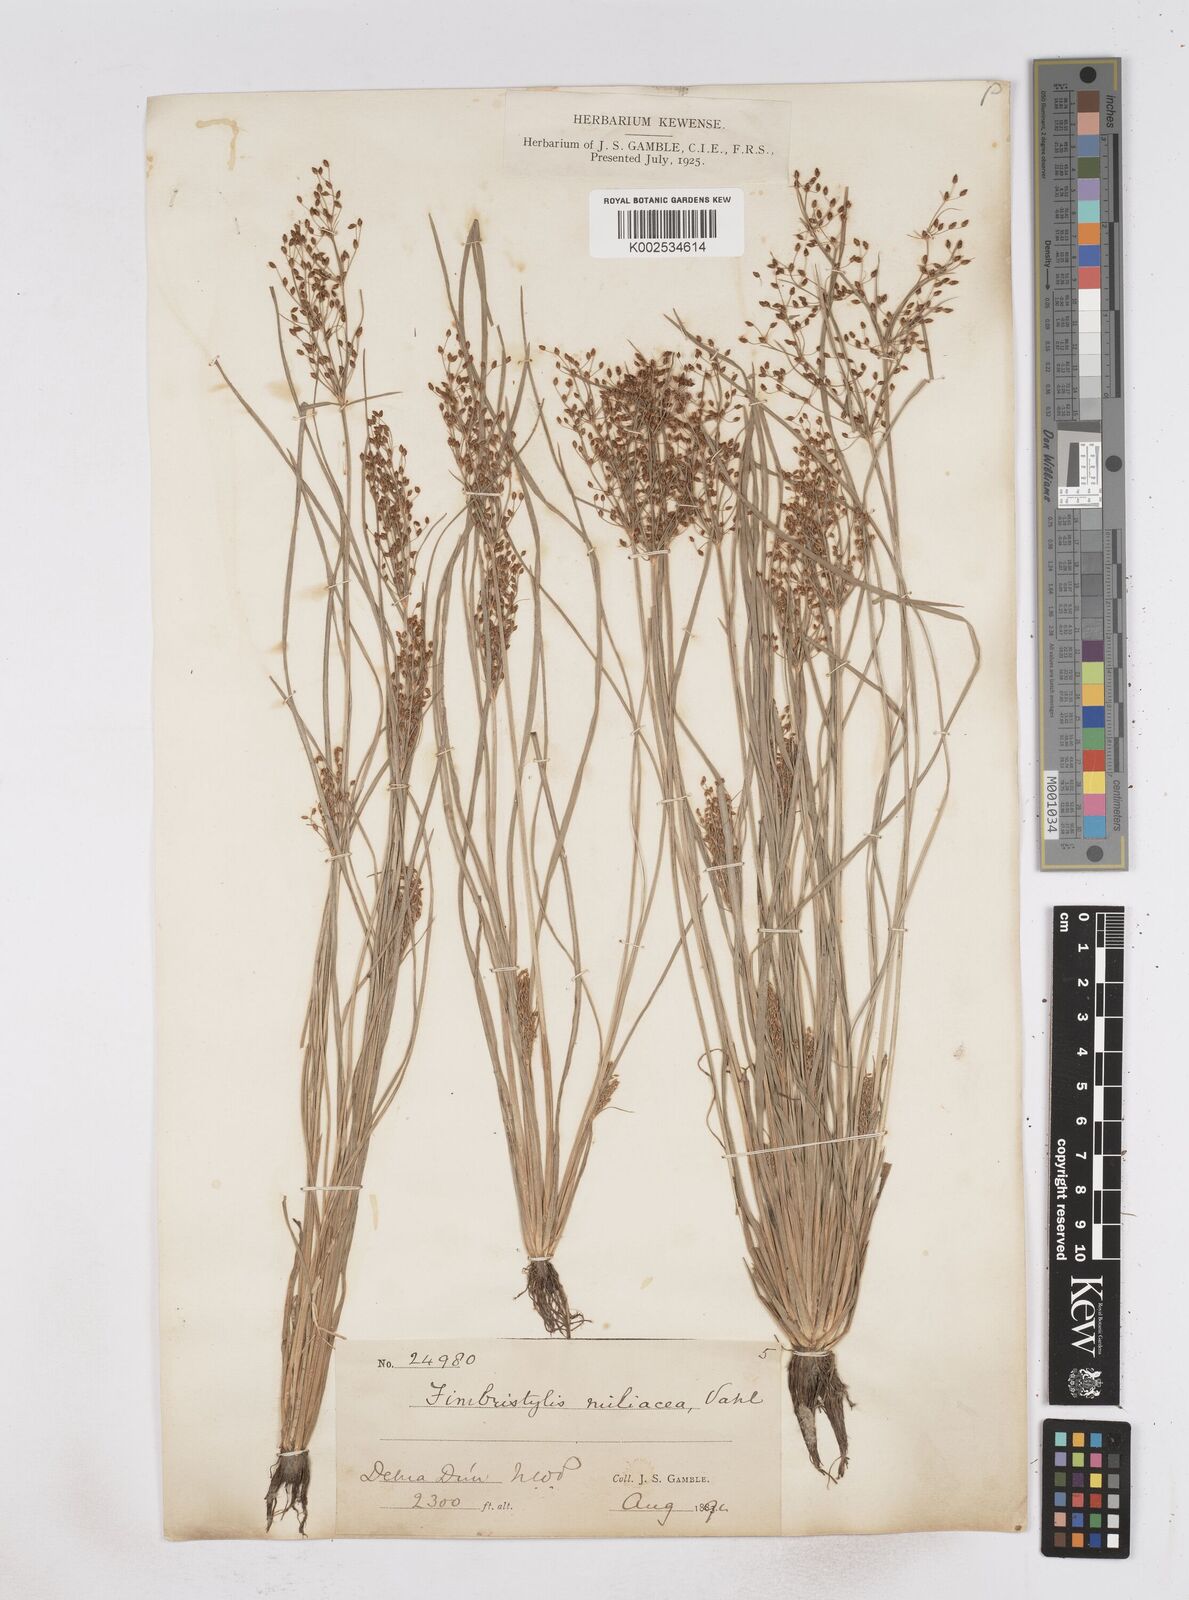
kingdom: Plantae
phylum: Tracheophyta
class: Liliopsida
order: Poales
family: Cyperaceae
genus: Fimbristylis
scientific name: Fimbristylis littoralis
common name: Fimbry
